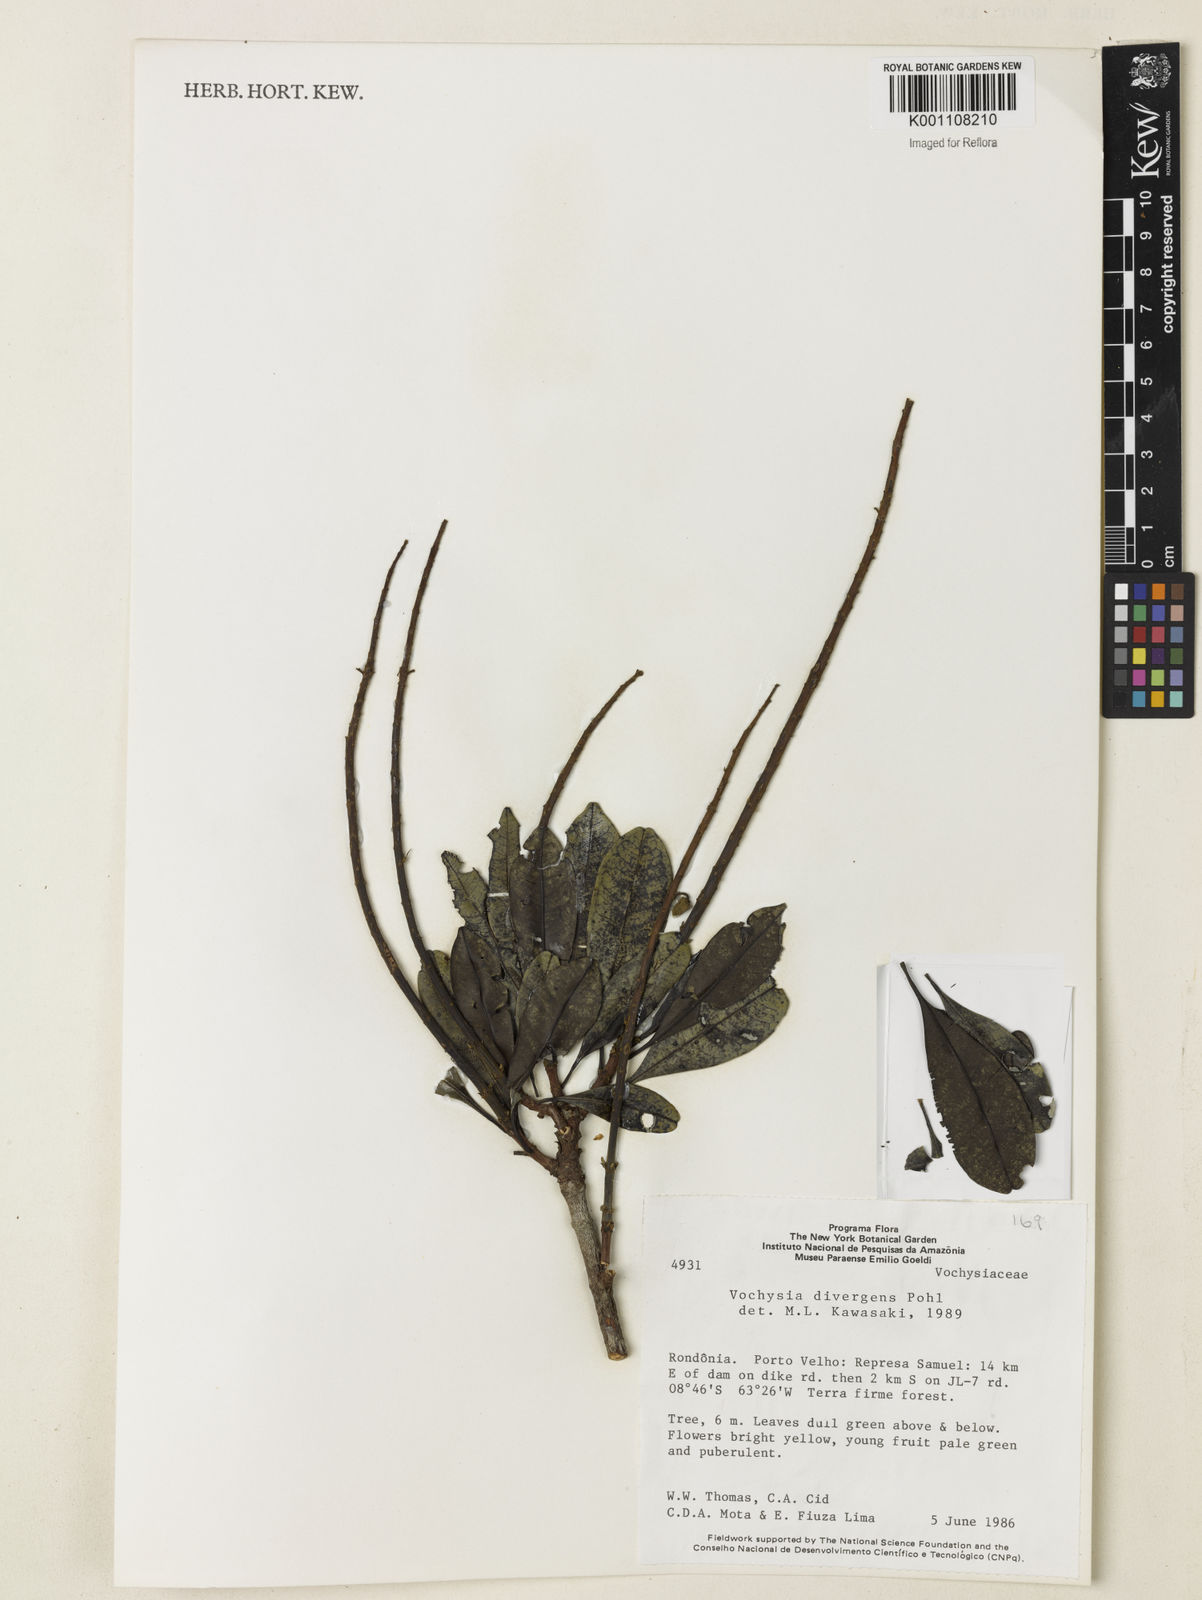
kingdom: Plantae
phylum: Tracheophyta
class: Magnoliopsida
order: Myrtales
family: Vochysiaceae
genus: Vochysia
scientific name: Vochysia divergens
